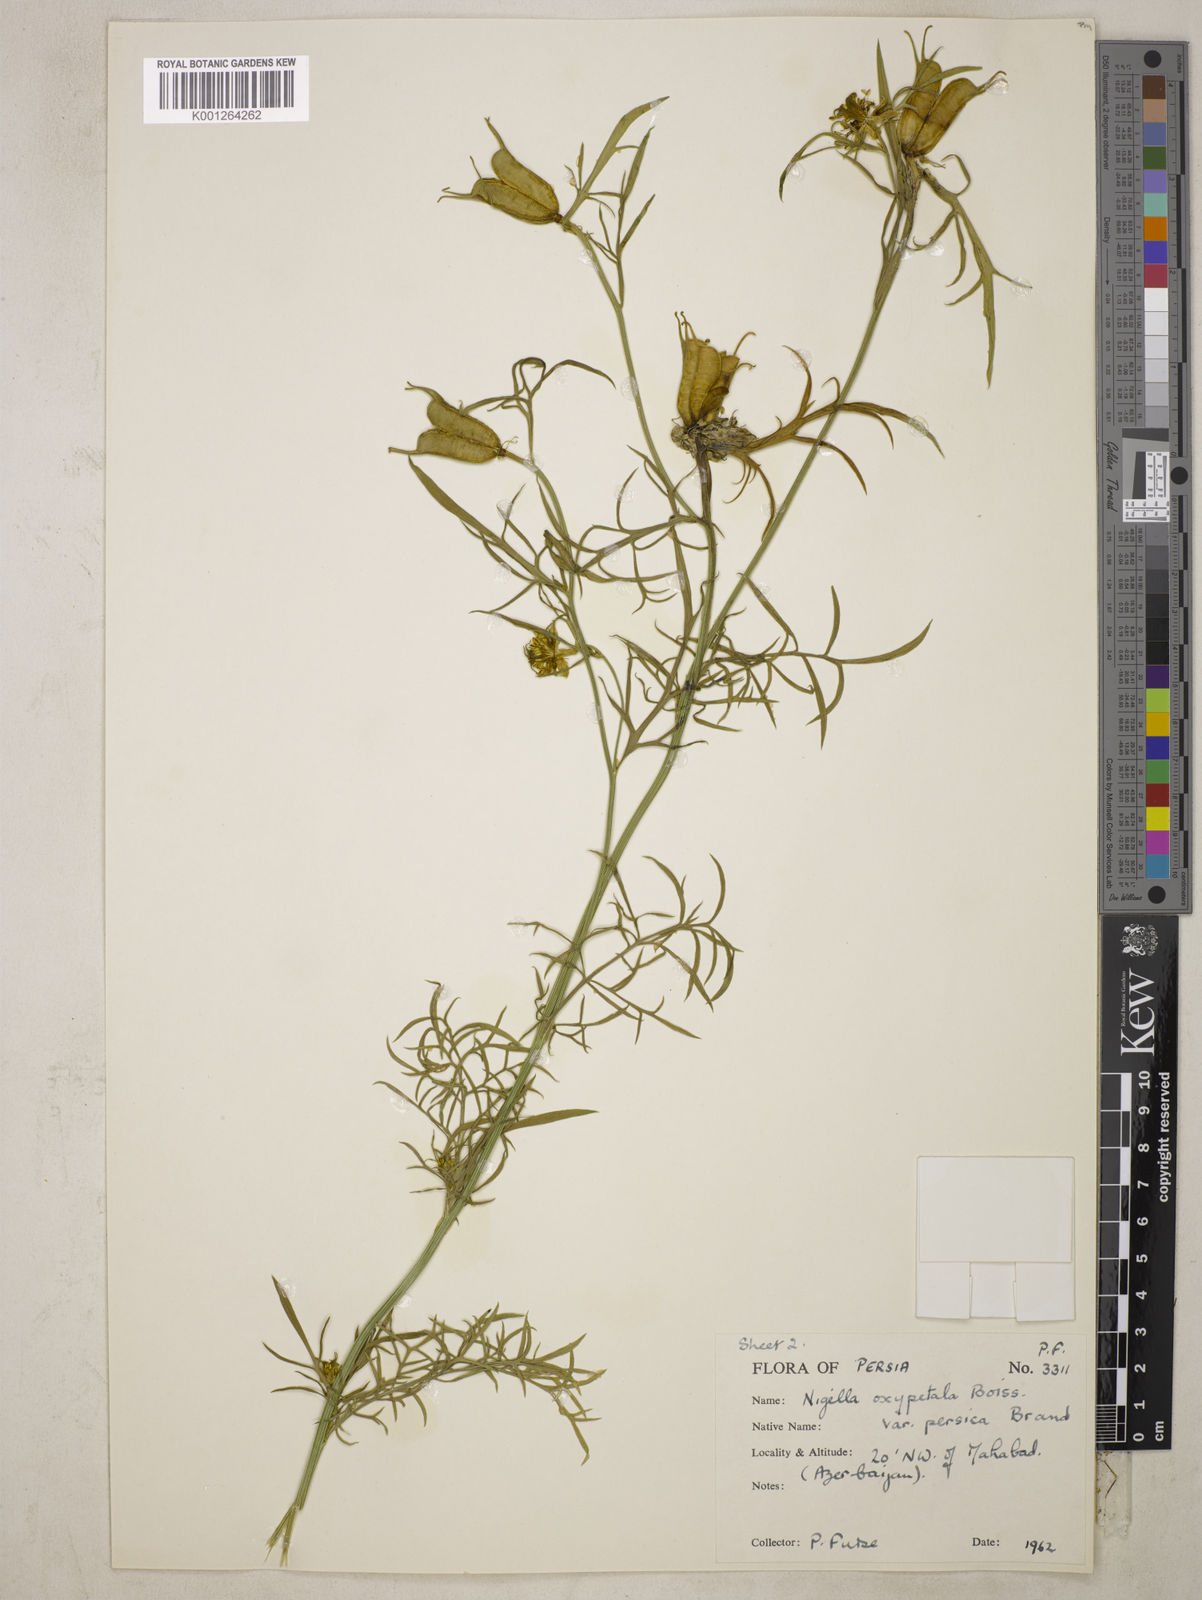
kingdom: Plantae
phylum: Tracheophyta
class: Magnoliopsida
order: Ranunculales
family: Ranunculaceae
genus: Nigella
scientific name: Nigella oxypetala
